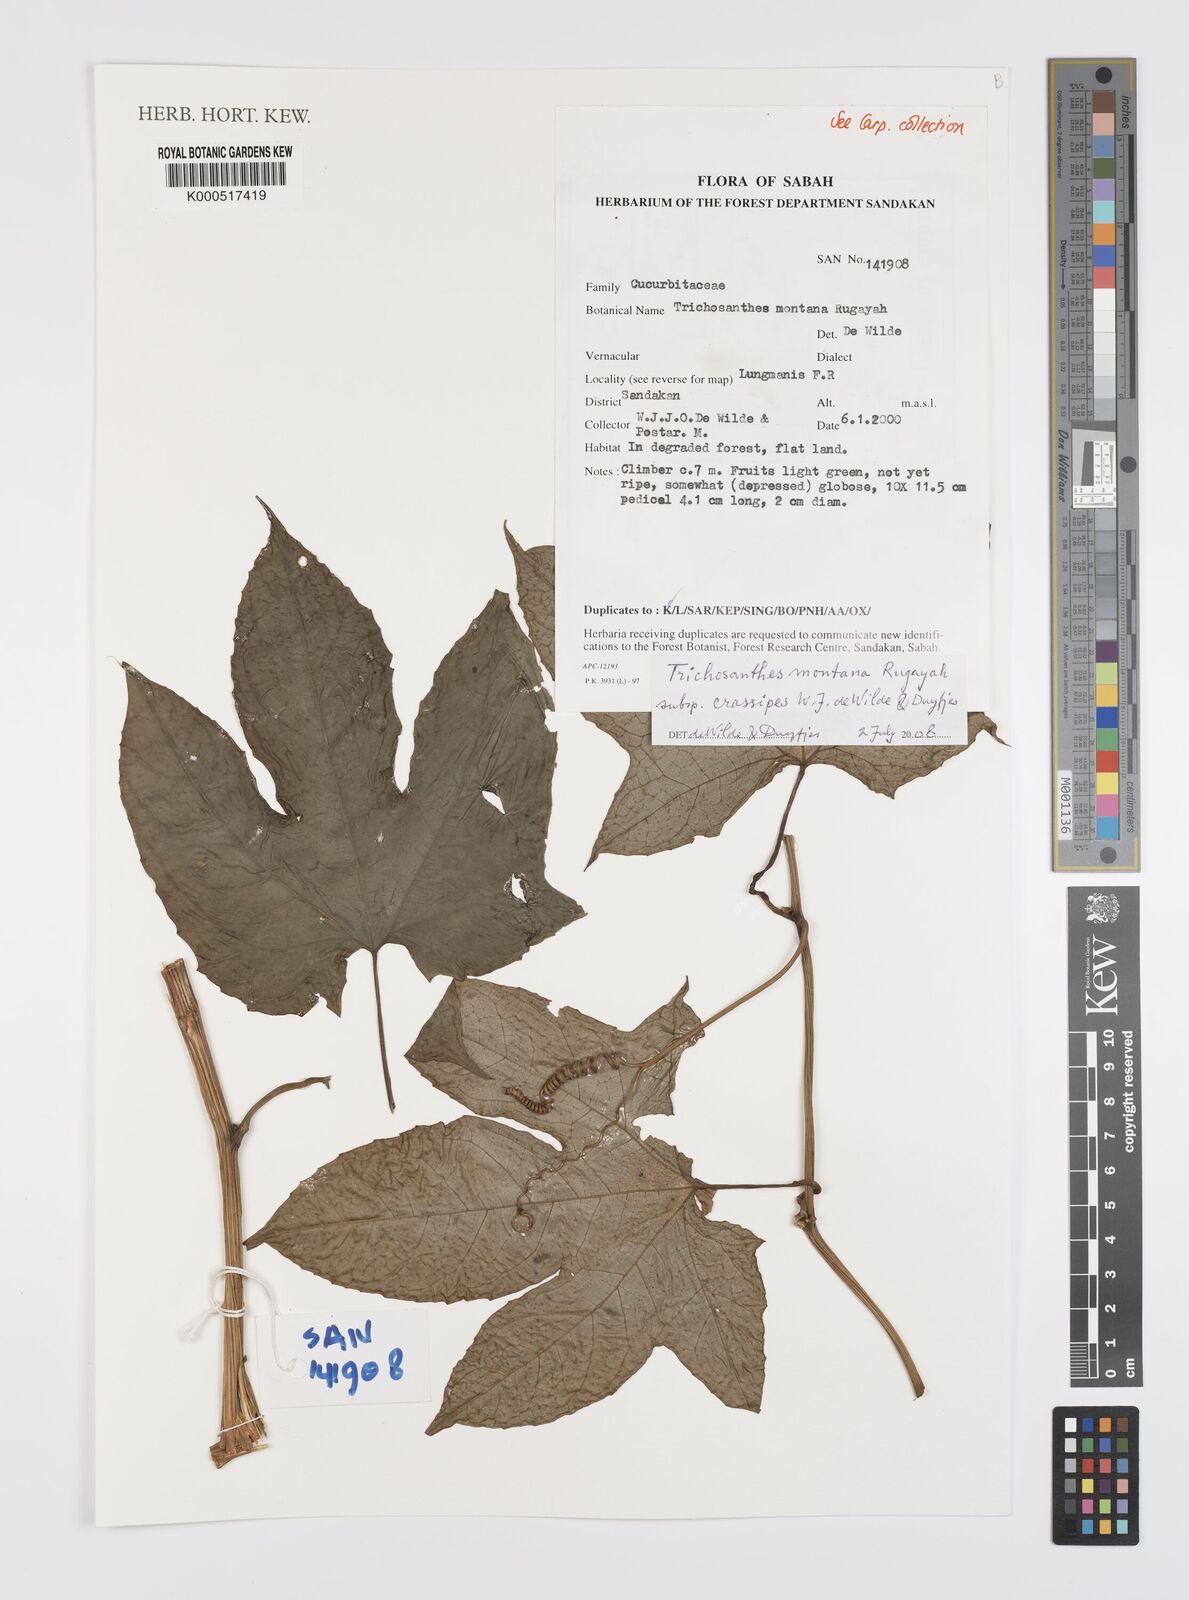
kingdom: Plantae
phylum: Tracheophyta
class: Magnoliopsida
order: Cucurbitales
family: Cucurbitaceae
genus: Trichosanthes
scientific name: Trichosanthes montana
